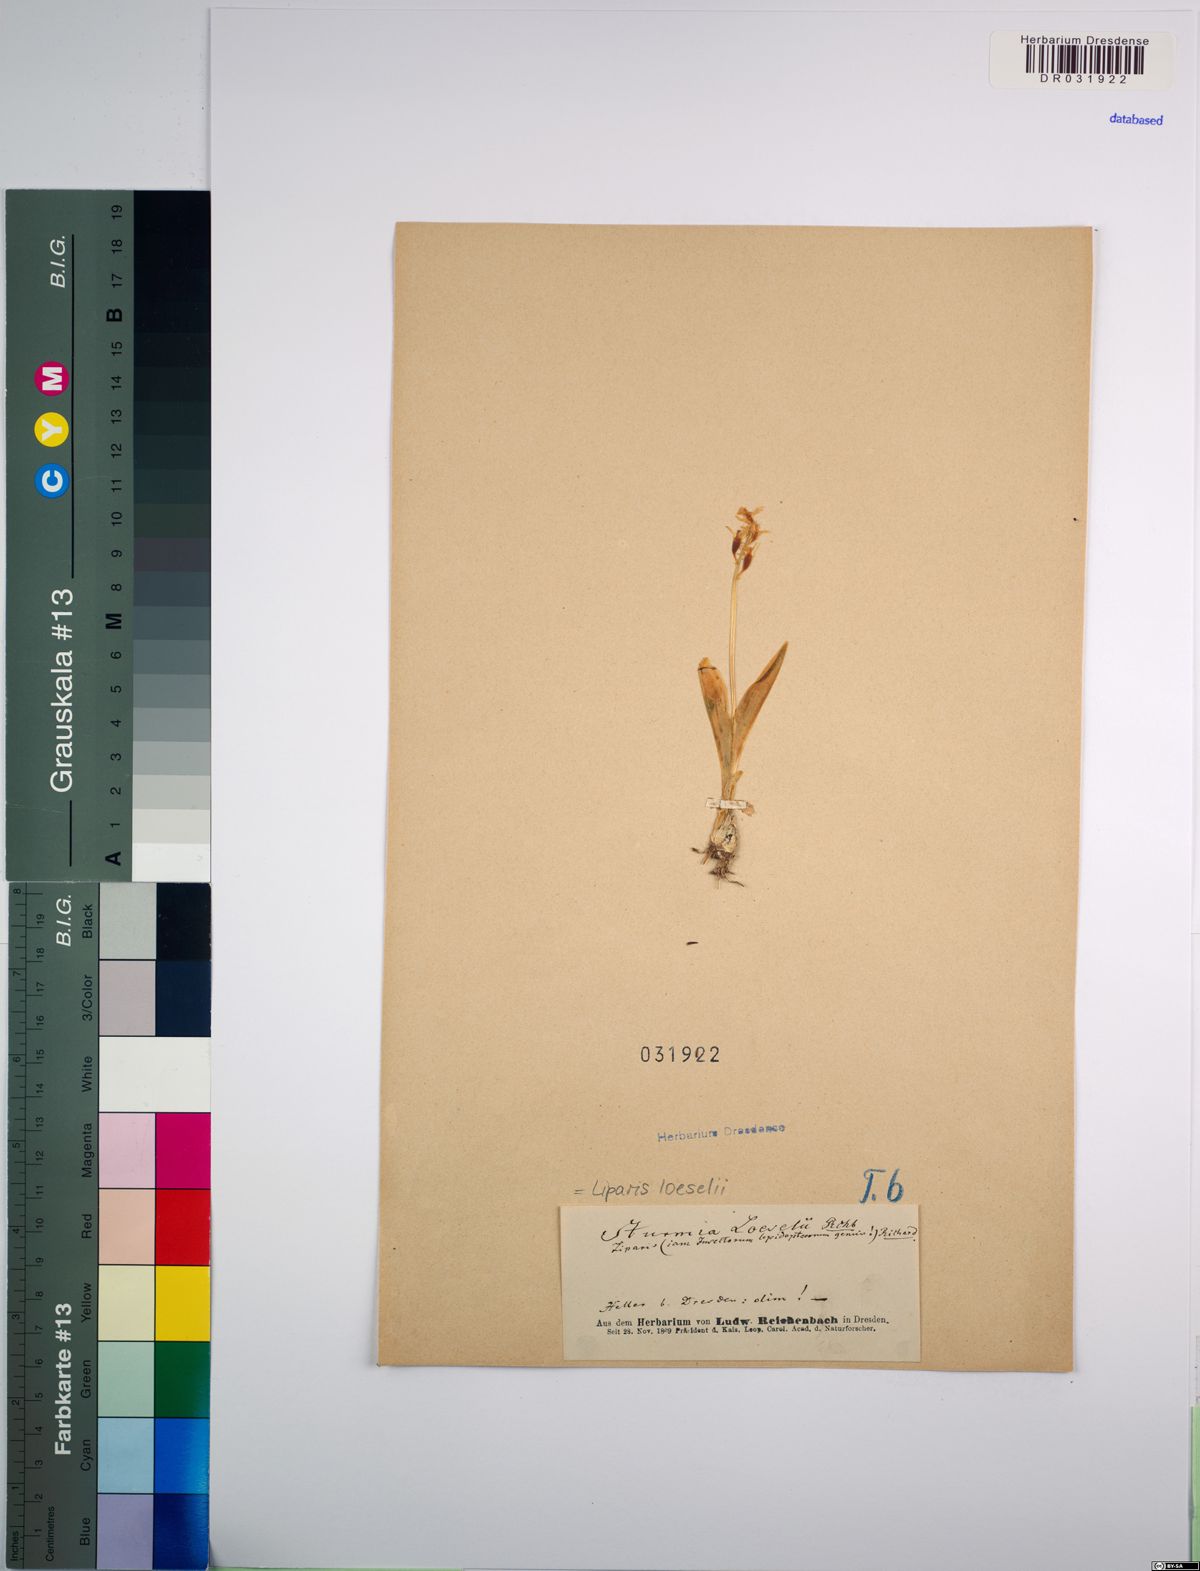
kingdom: Animalia
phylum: Arthropoda
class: Insecta
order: Coleoptera
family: Curculionidae
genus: Liparis
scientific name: Liparis loeselii
